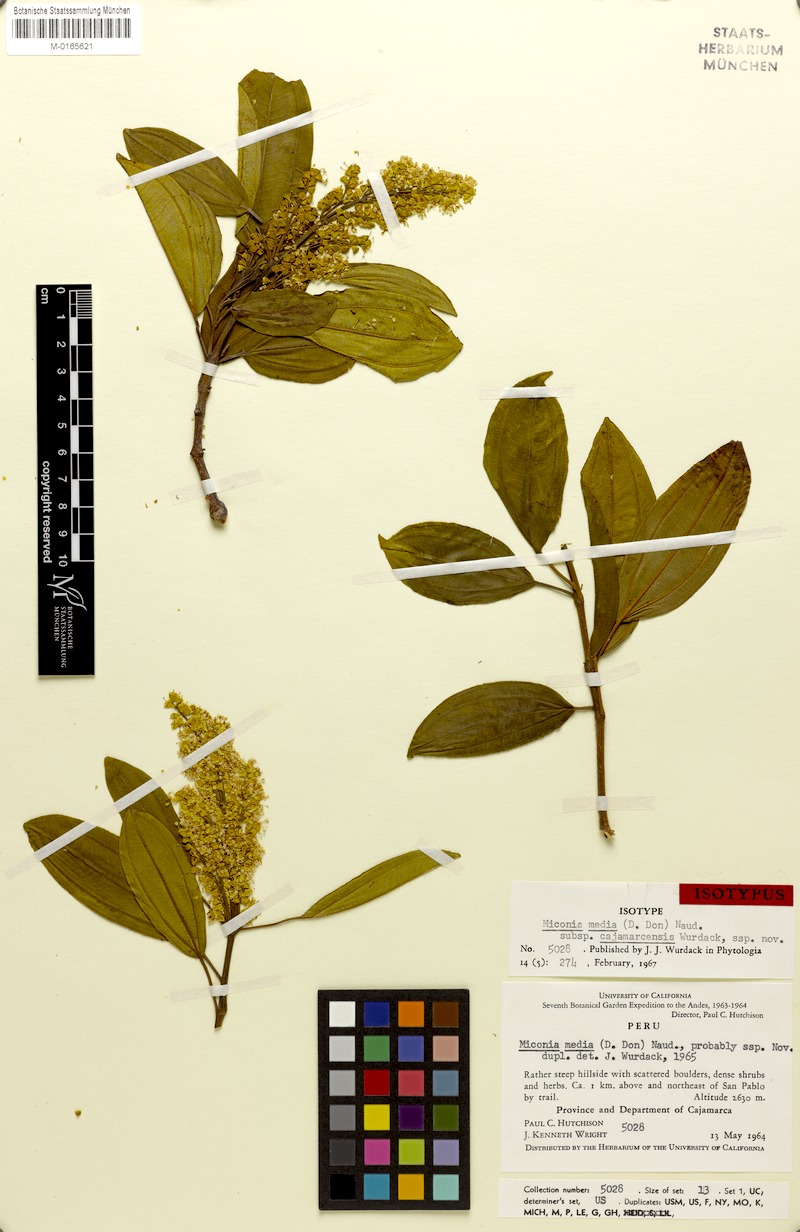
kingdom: Plantae
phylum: Tracheophyta
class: Magnoliopsida
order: Myrtales
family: Melastomataceae
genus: Miconia
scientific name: Miconia media
